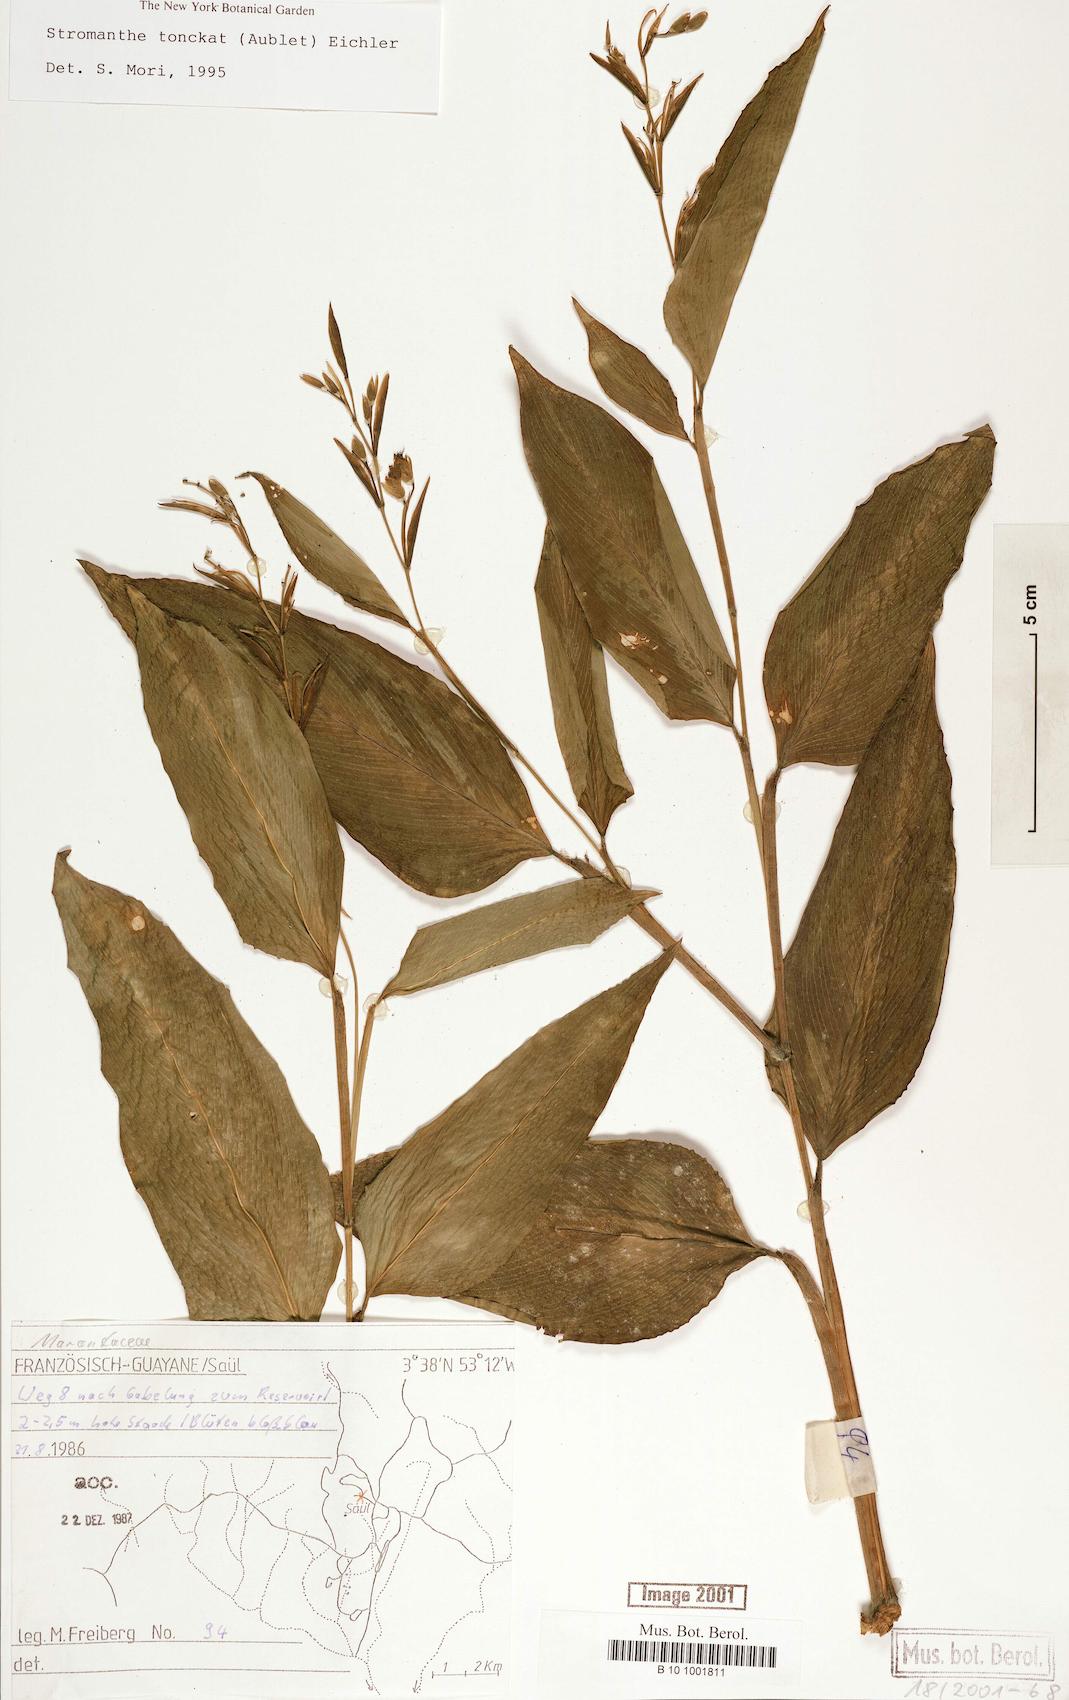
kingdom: Plantae
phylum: Tracheophyta
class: Liliopsida
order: Zingiberales
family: Marantaceae
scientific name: Marantaceae
